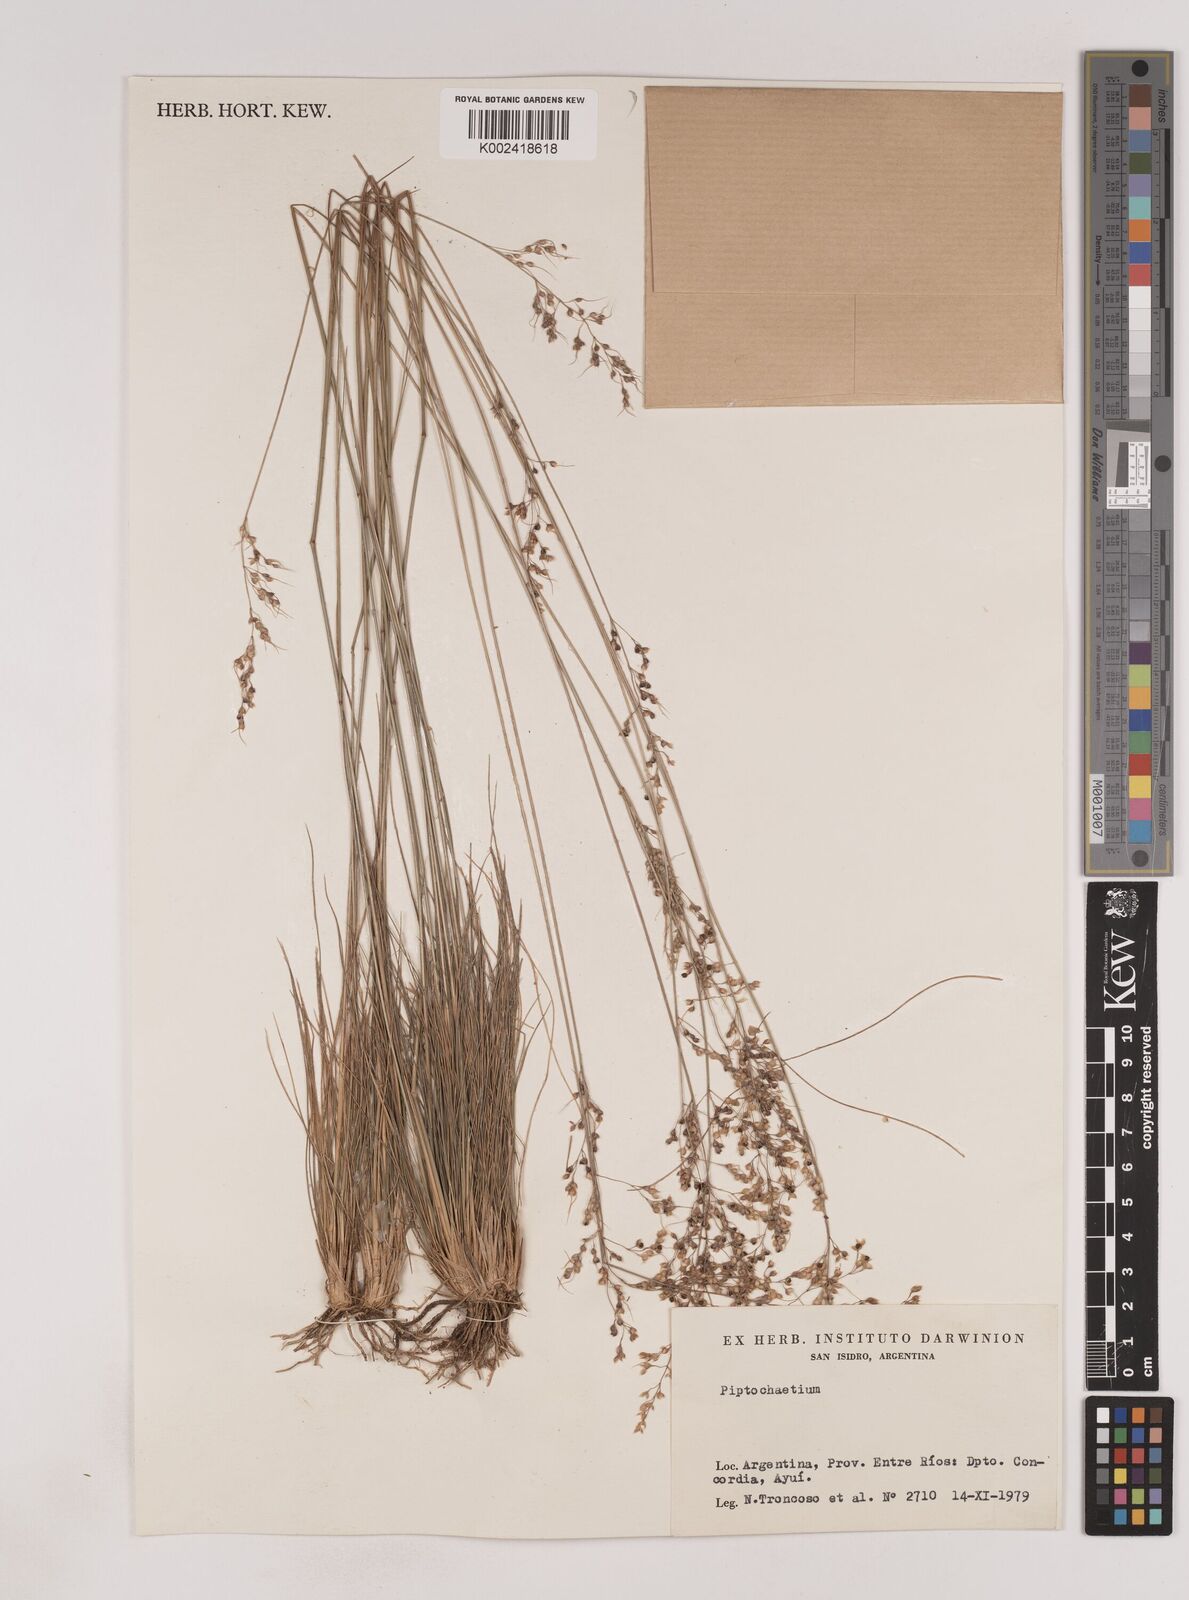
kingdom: Plantae
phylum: Tracheophyta
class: Liliopsida
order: Poales
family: Poaceae
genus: Piptochaetium
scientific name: Piptochaetium
